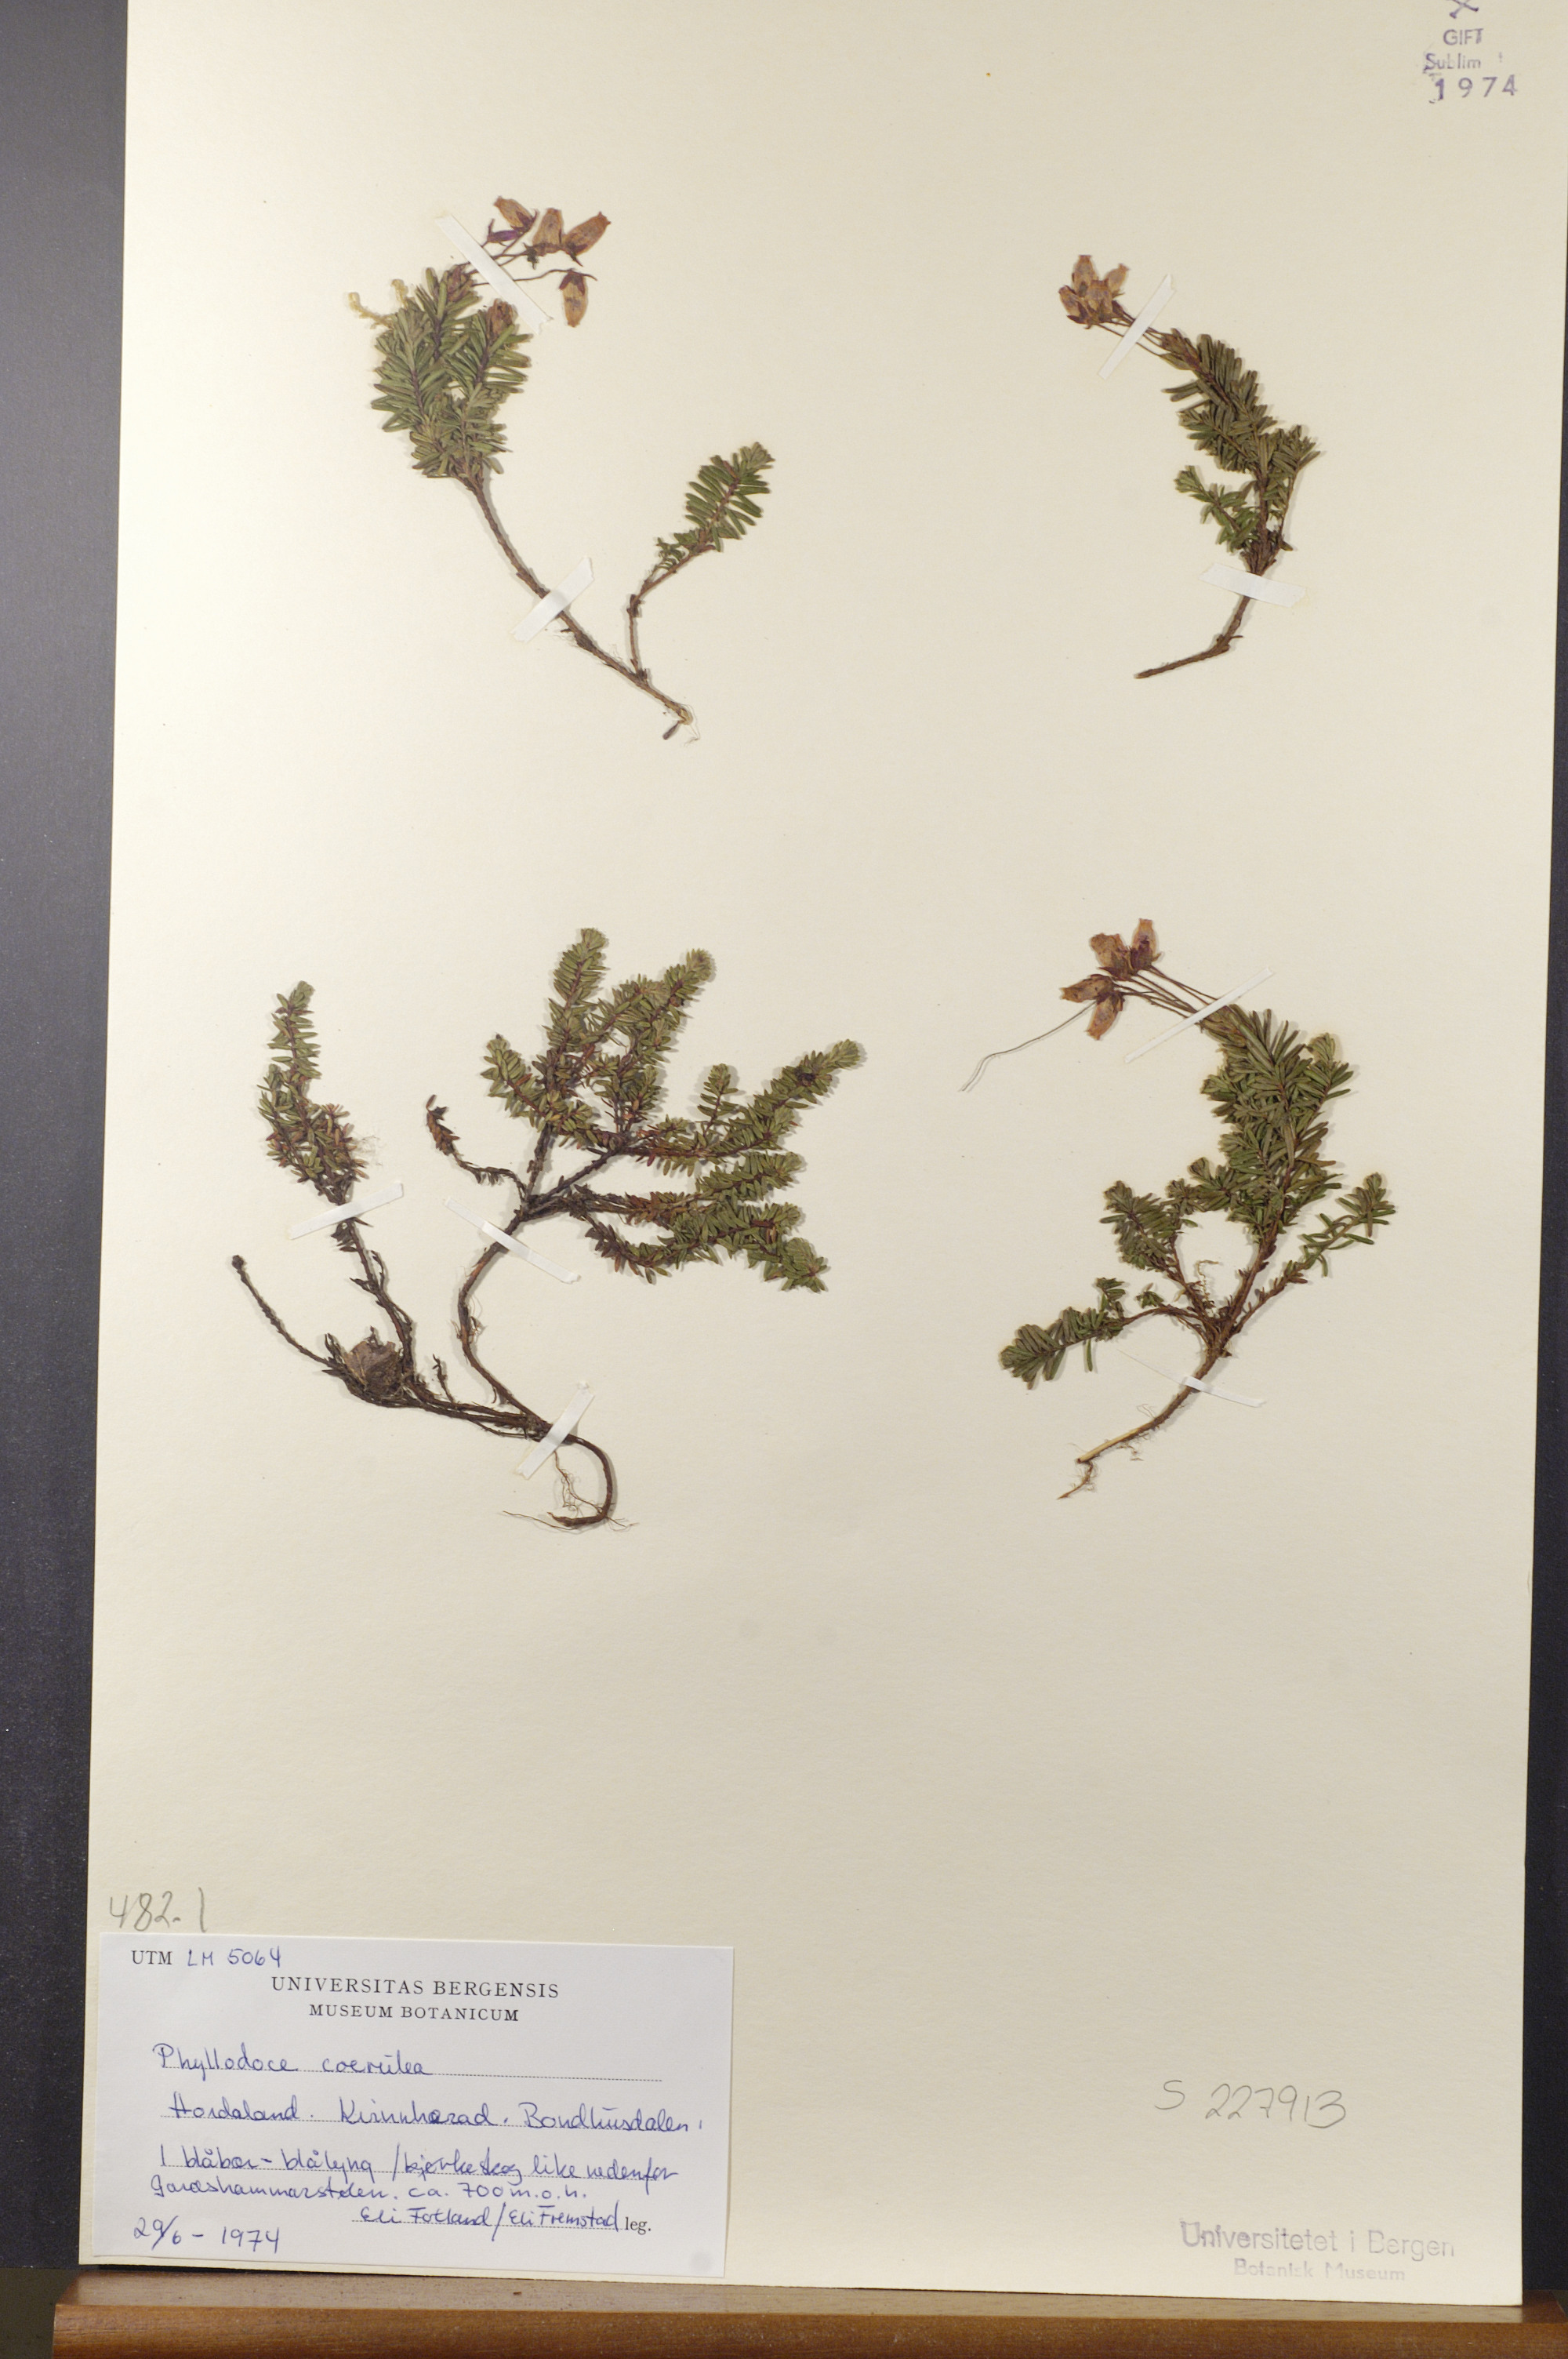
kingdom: Plantae
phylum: Tracheophyta
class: Magnoliopsida
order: Ericales
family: Ericaceae
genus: Phyllodoce
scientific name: Phyllodoce caerulea
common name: Blue heath
